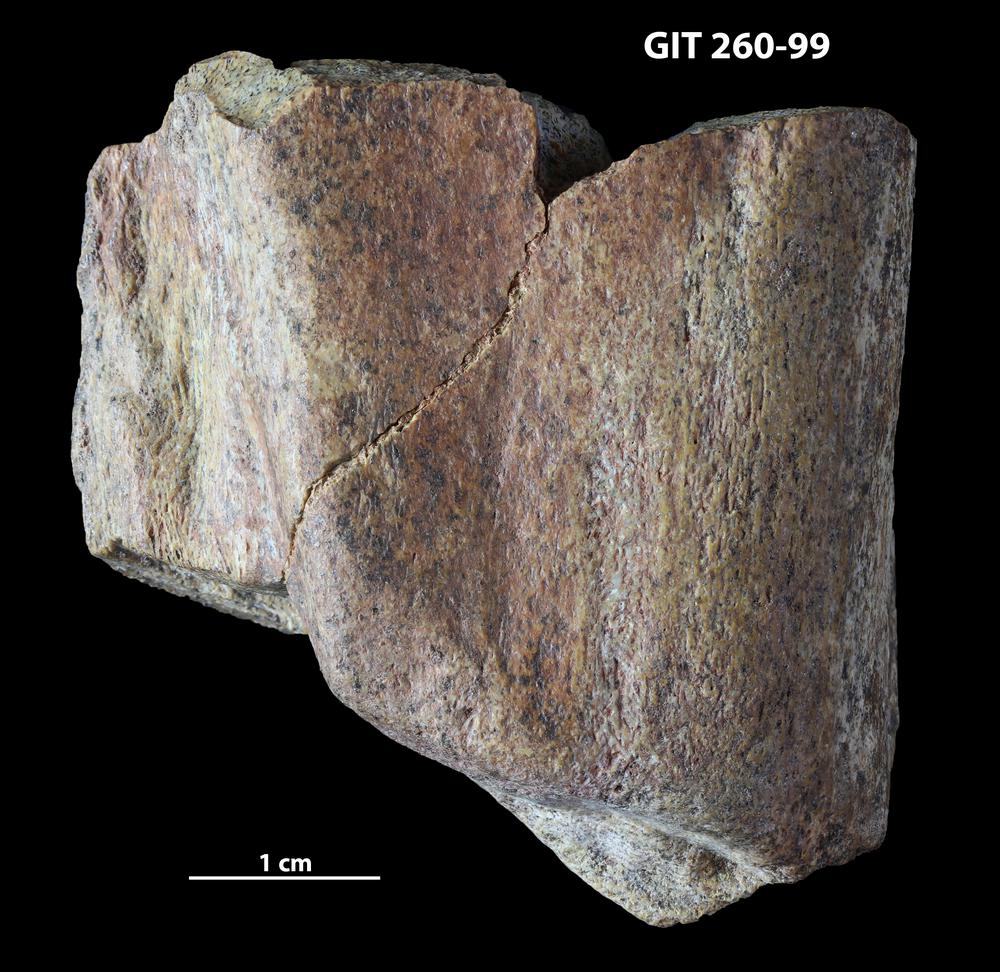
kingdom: Animalia
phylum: Chordata
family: Homostiidae
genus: Homostius
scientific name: Homostius
